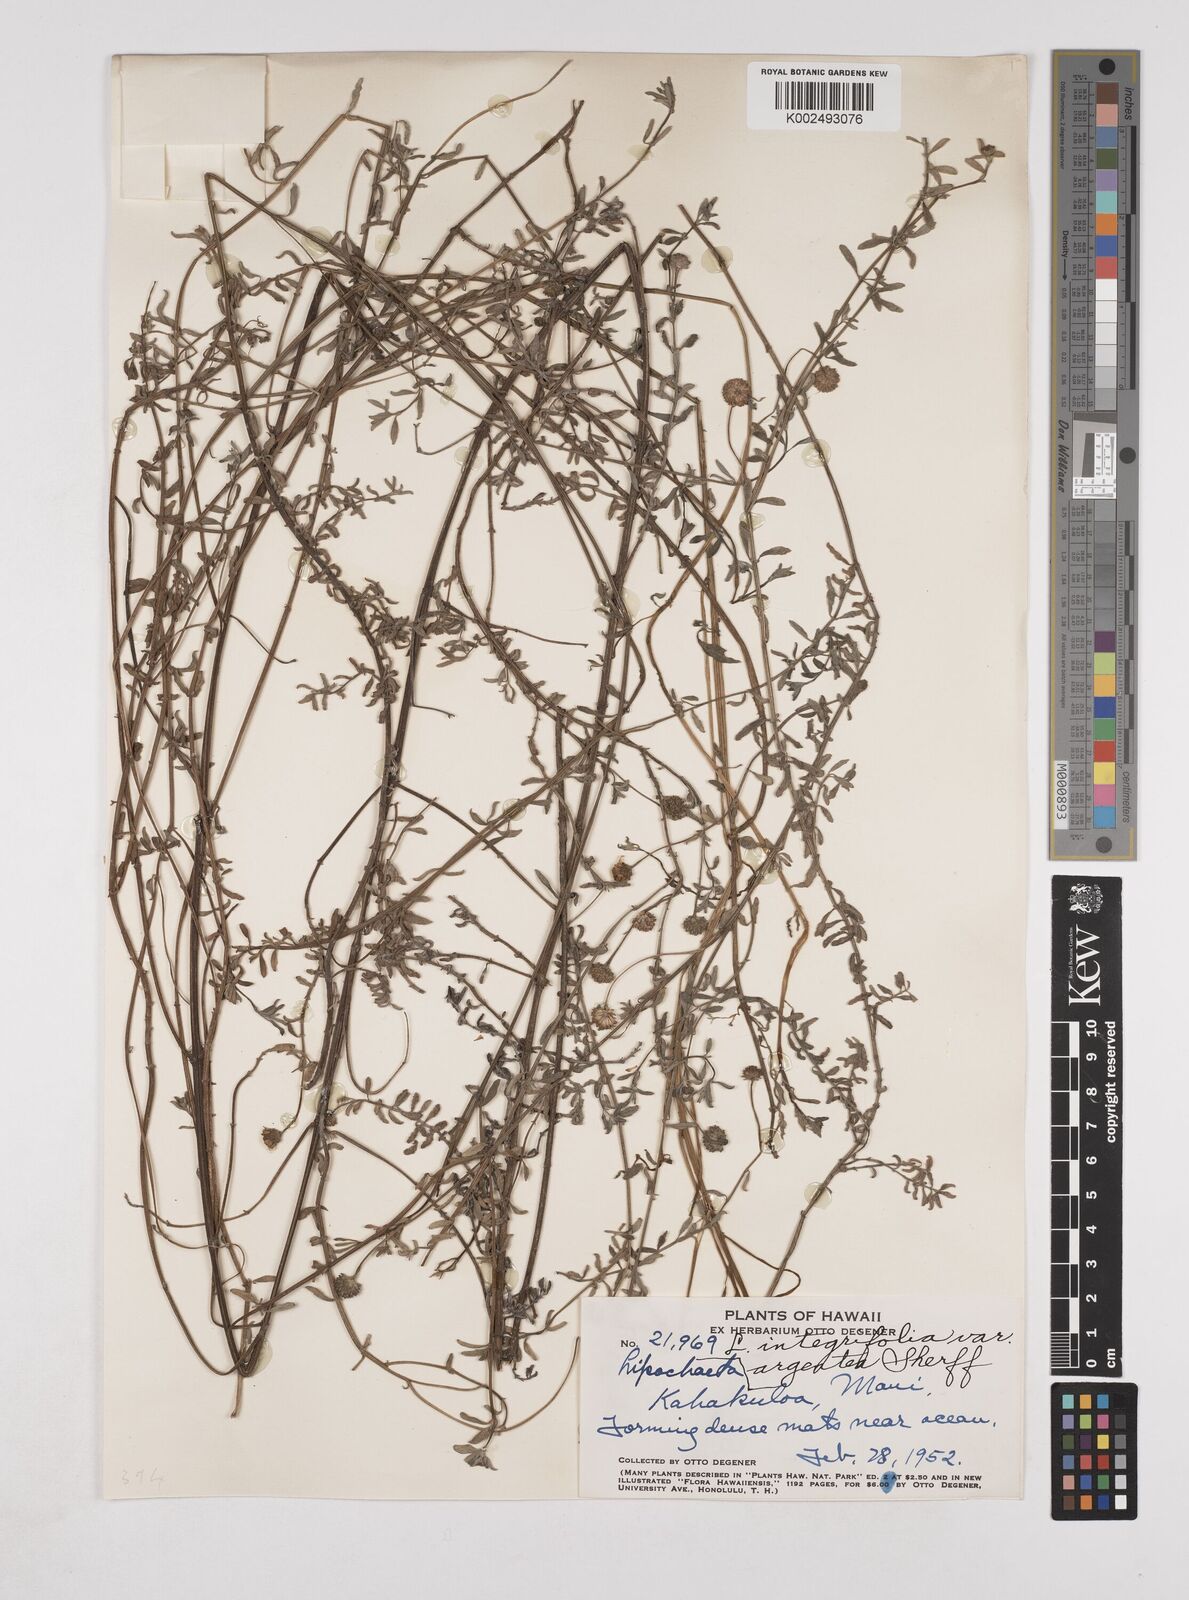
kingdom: Plantae
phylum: Tracheophyta
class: Magnoliopsida
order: Asterales
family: Asteraceae
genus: Lipochaeta
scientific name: Lipochaeta integrifolia
